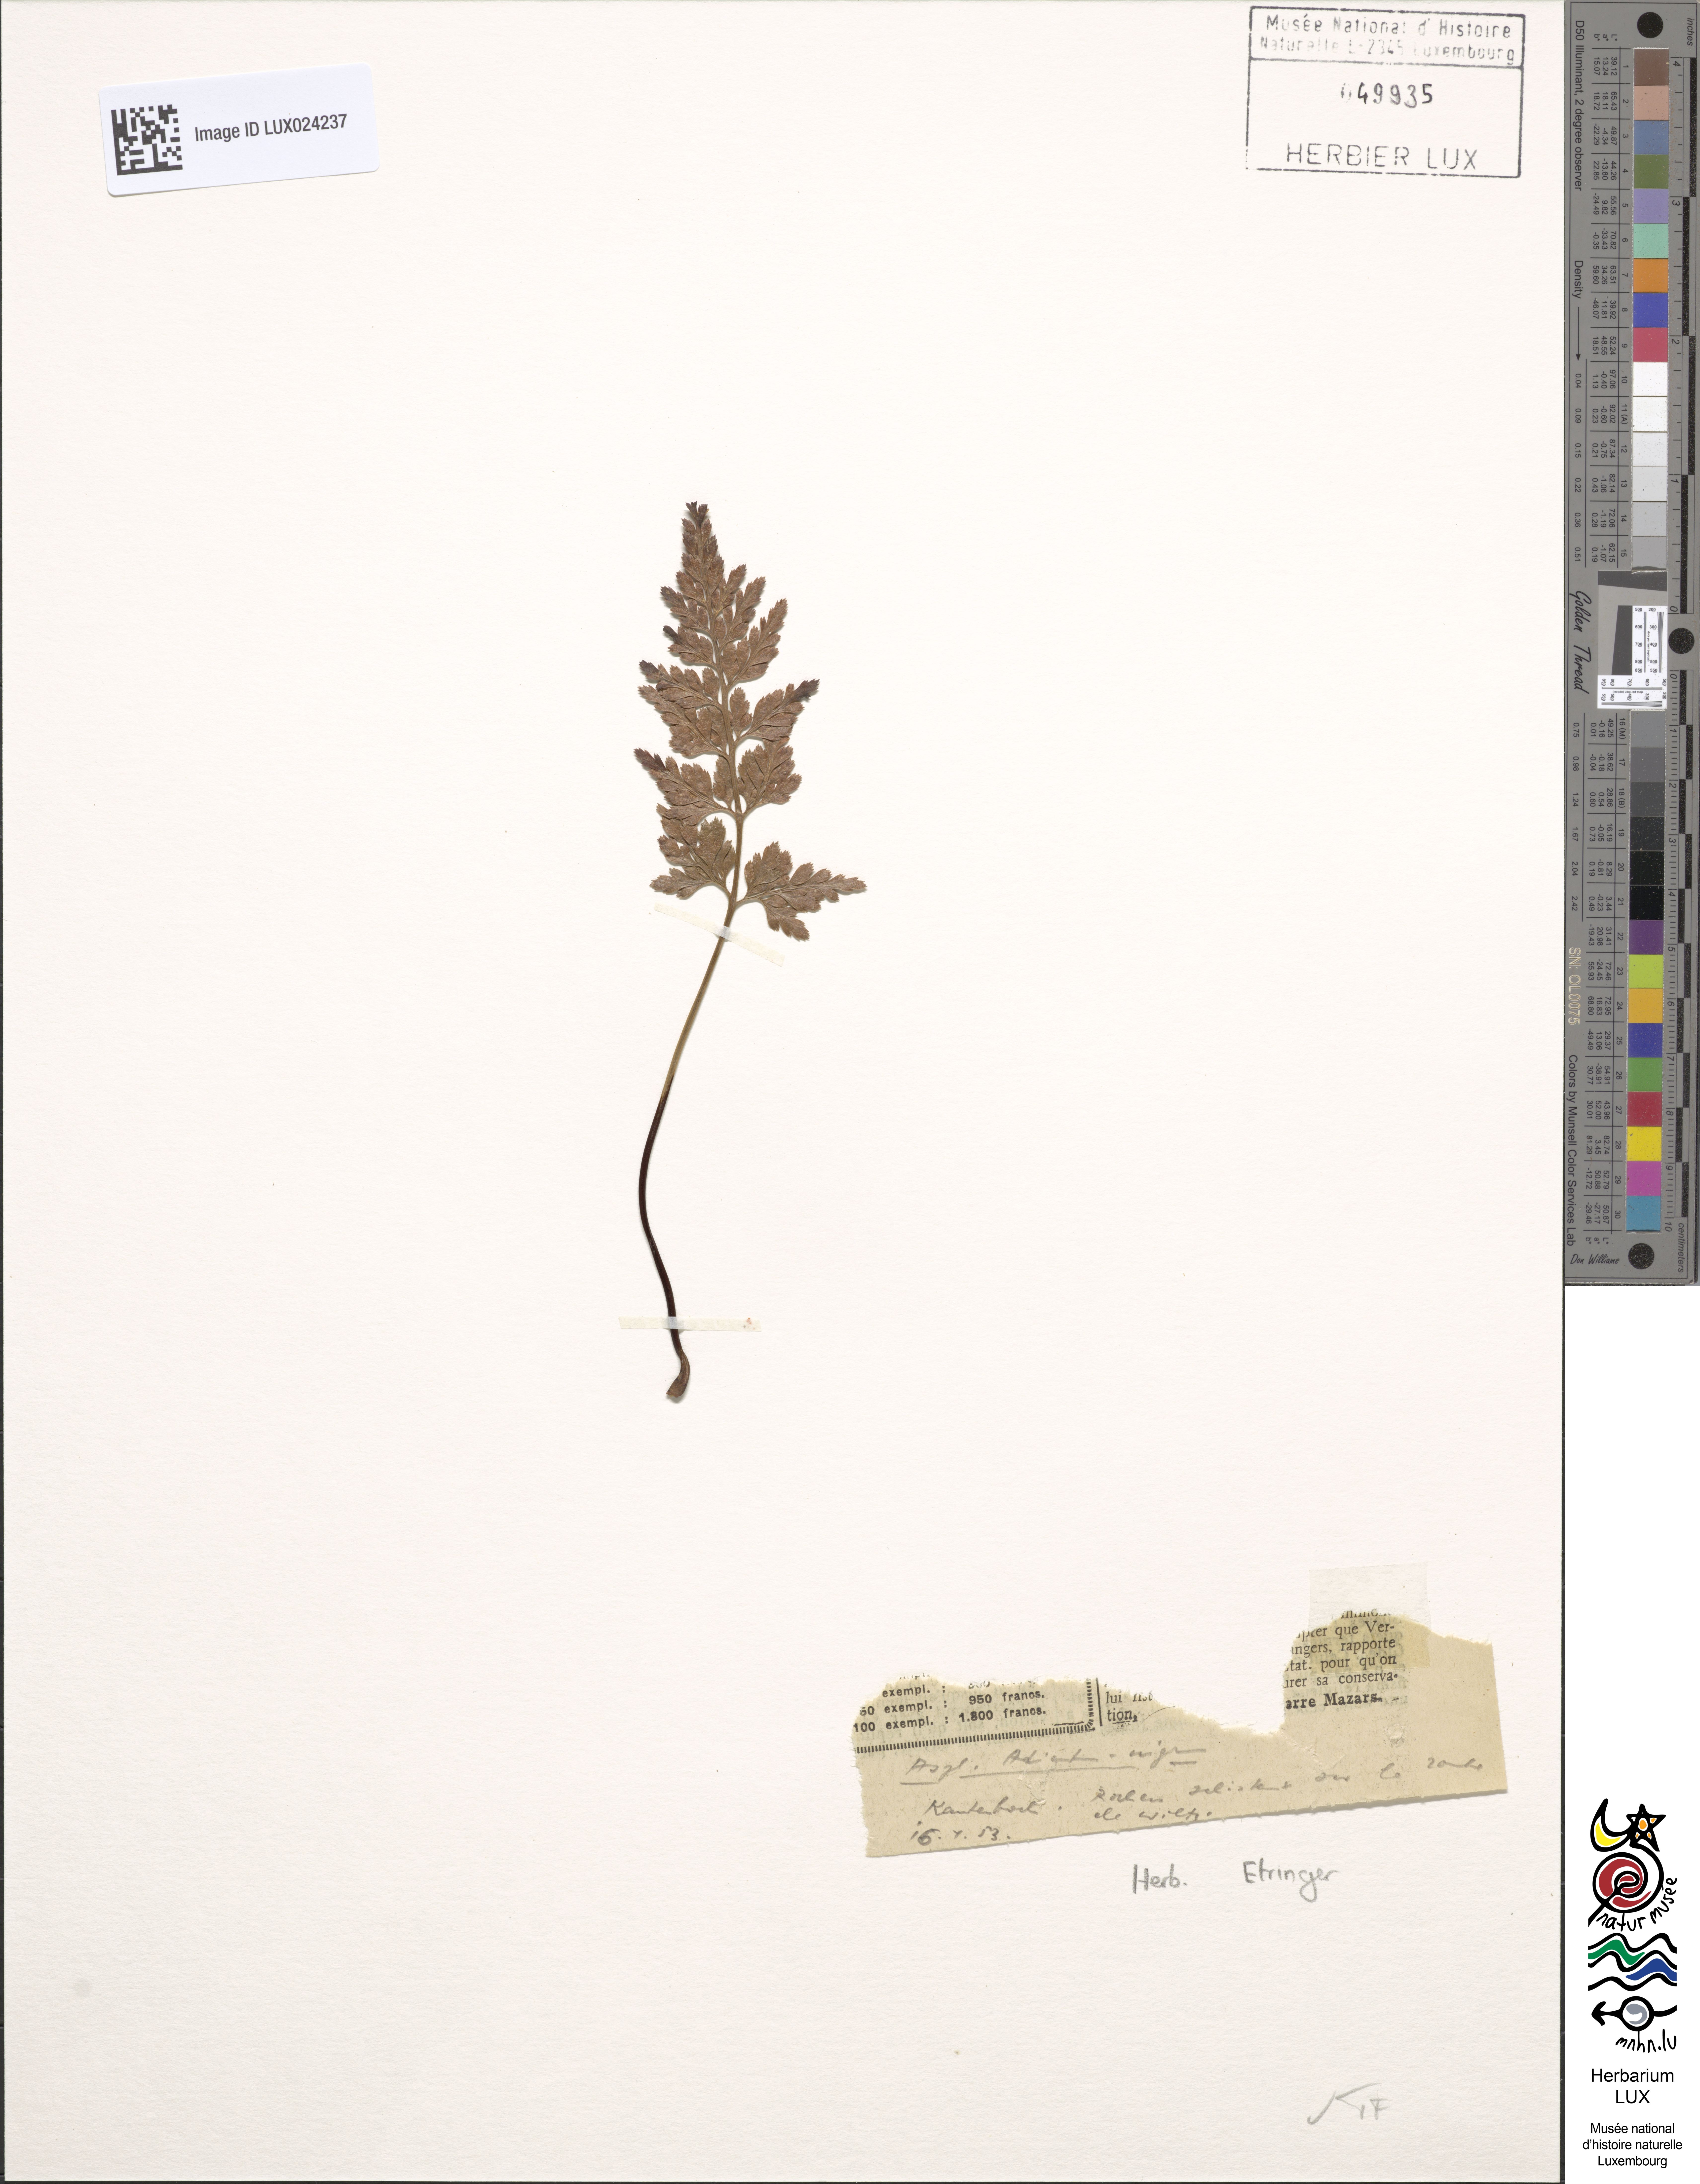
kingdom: Plantae
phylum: Tracheophyta
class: Polypodiopsida
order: Polypodiales
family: Aspleniaceae
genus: Asplenium
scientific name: Asplenium adiantum-nigrum
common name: Black spleenwort
